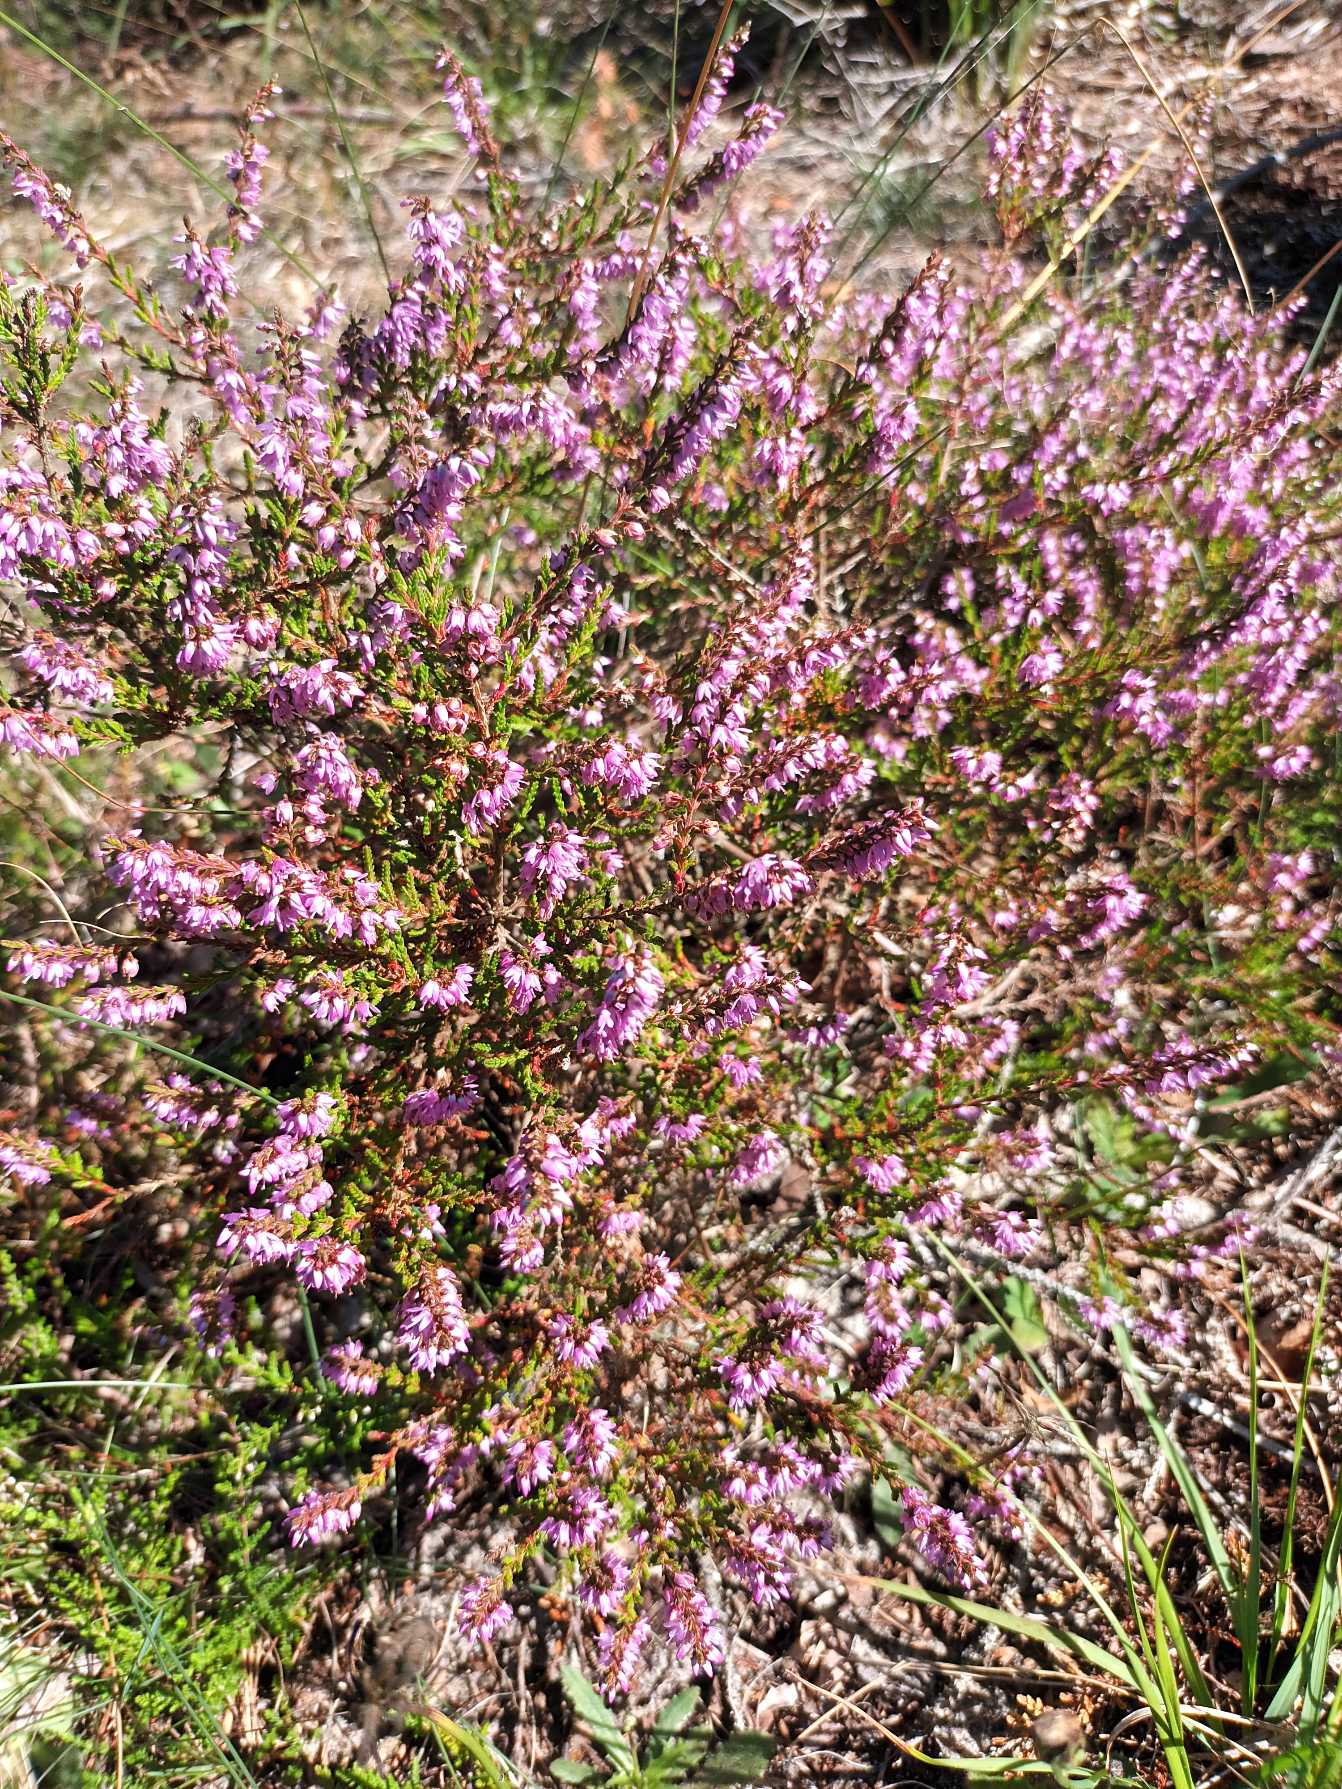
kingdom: Plantae
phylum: Tracheophyta
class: Magnoliopsida
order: Ericales
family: Ericaceae
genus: Calluna
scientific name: Calluna vulgaris
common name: Hedelyng
